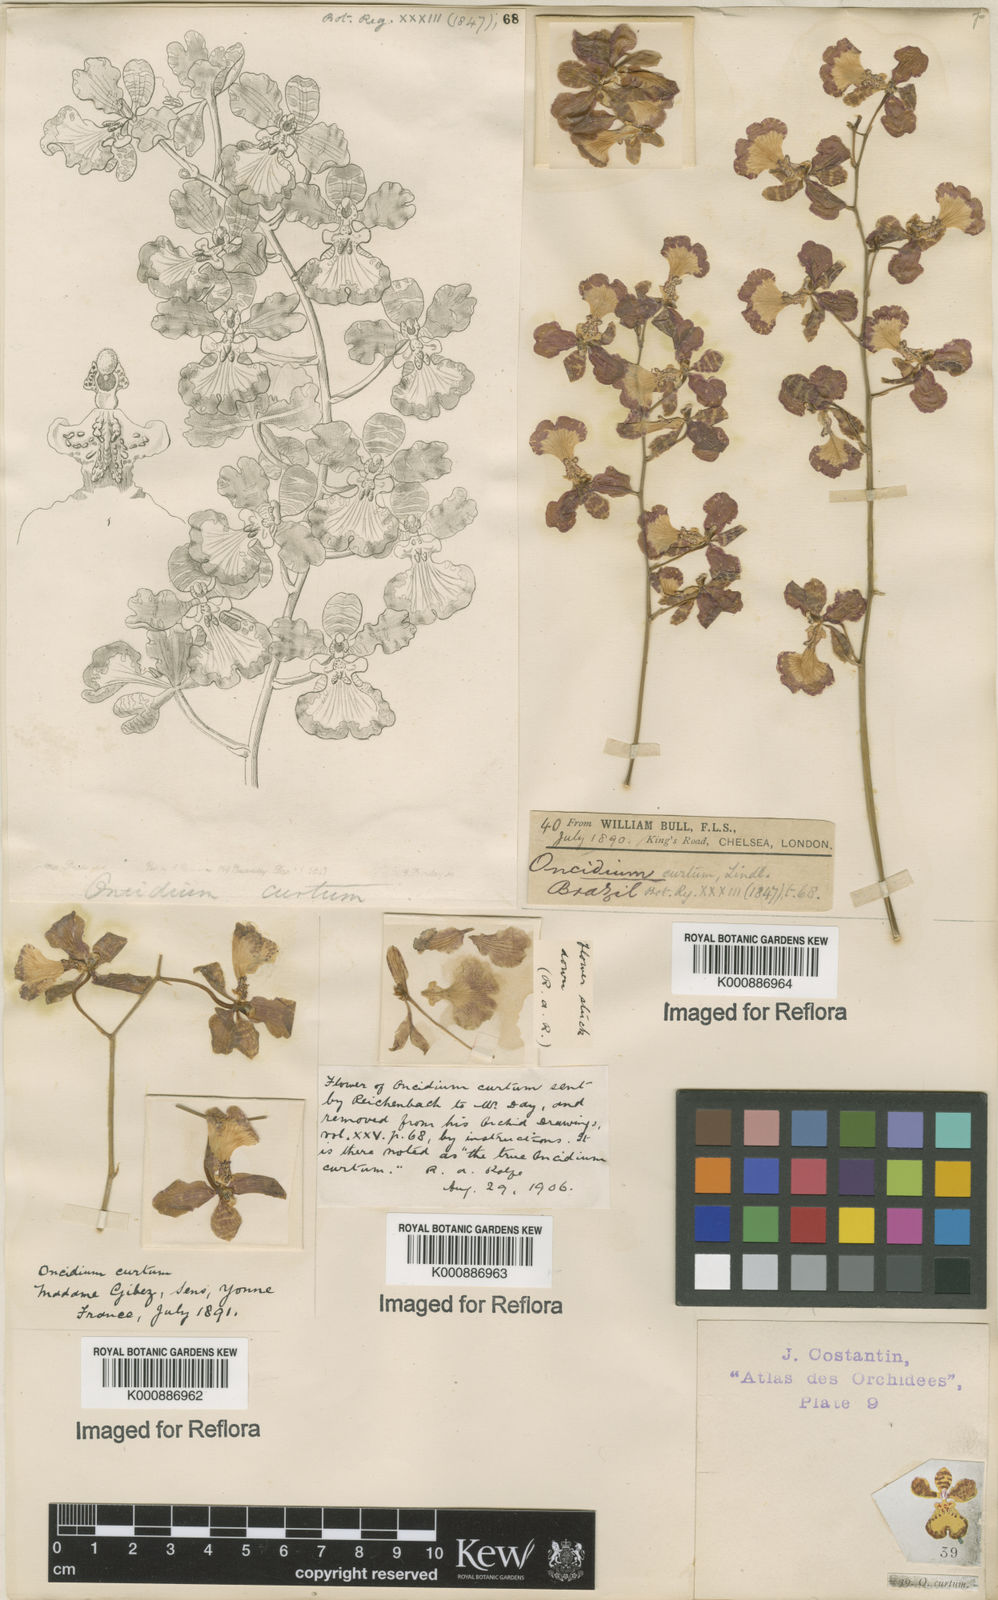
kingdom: Plantae
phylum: Tracheophyta
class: Liliopsida
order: Asparagales
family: Orchidaceae
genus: Gomesa
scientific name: Gomesa gardneri
